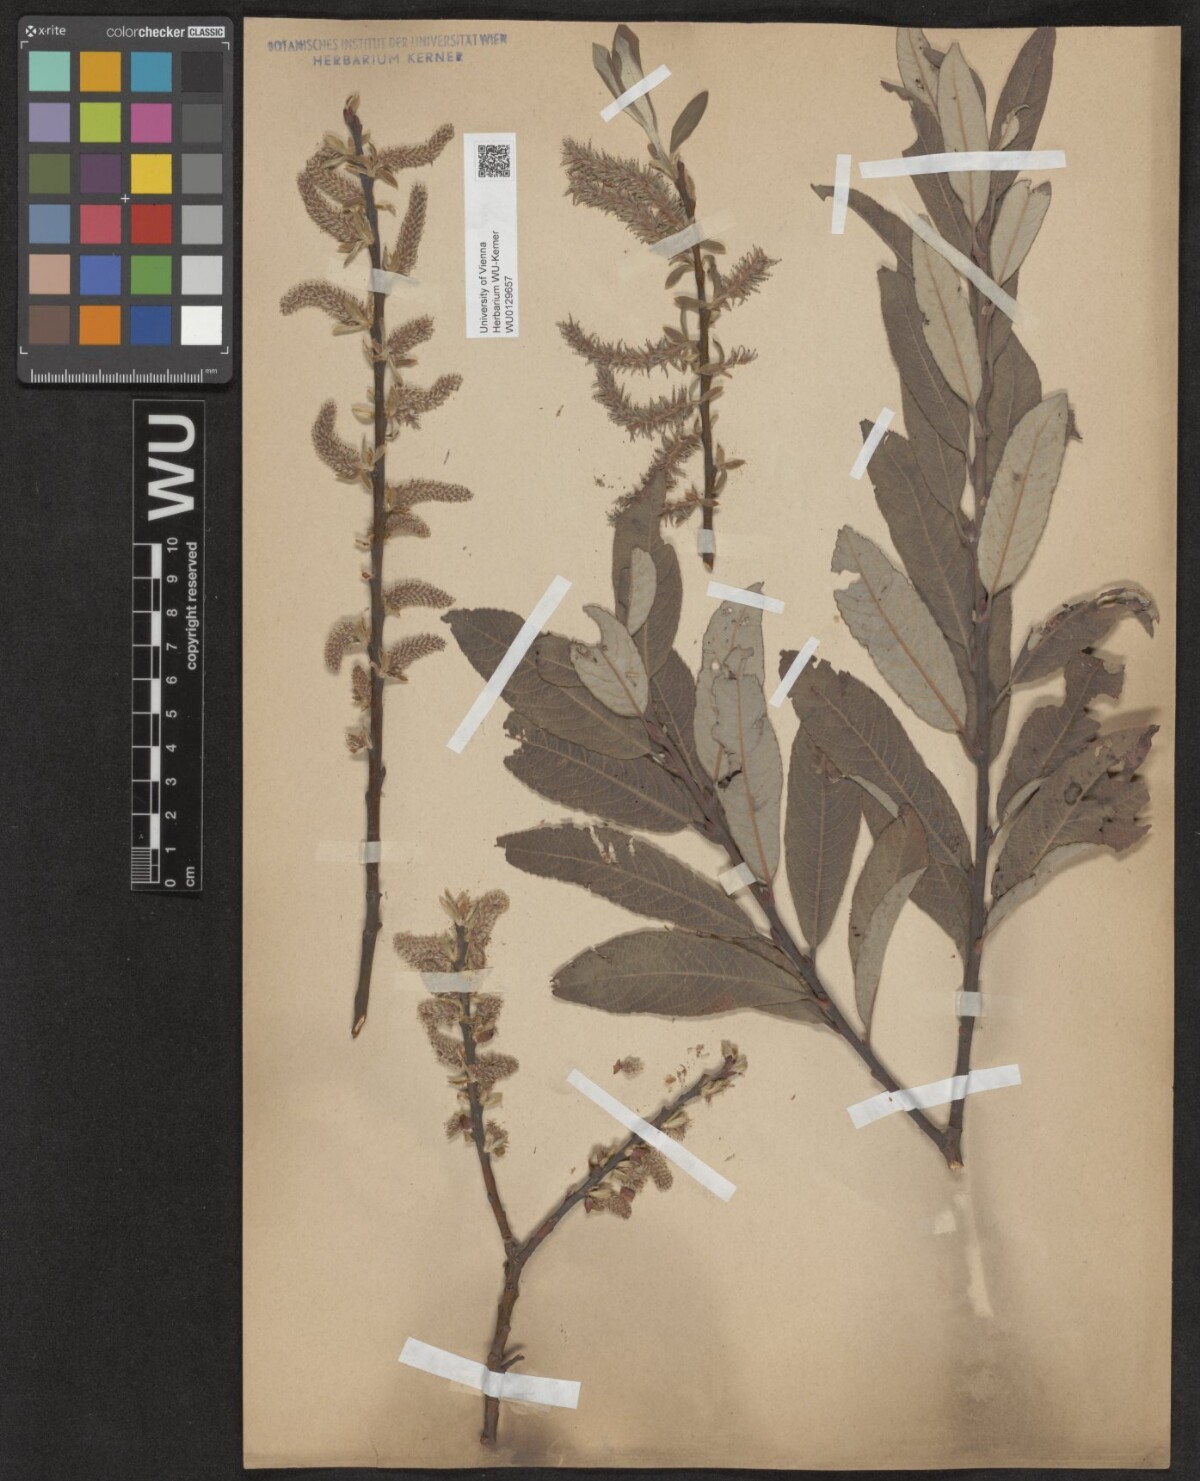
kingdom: Plantae
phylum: Tracheophyta
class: Magnoliopsida
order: Malpighiales
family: Salicaceae
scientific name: Salicaceae
